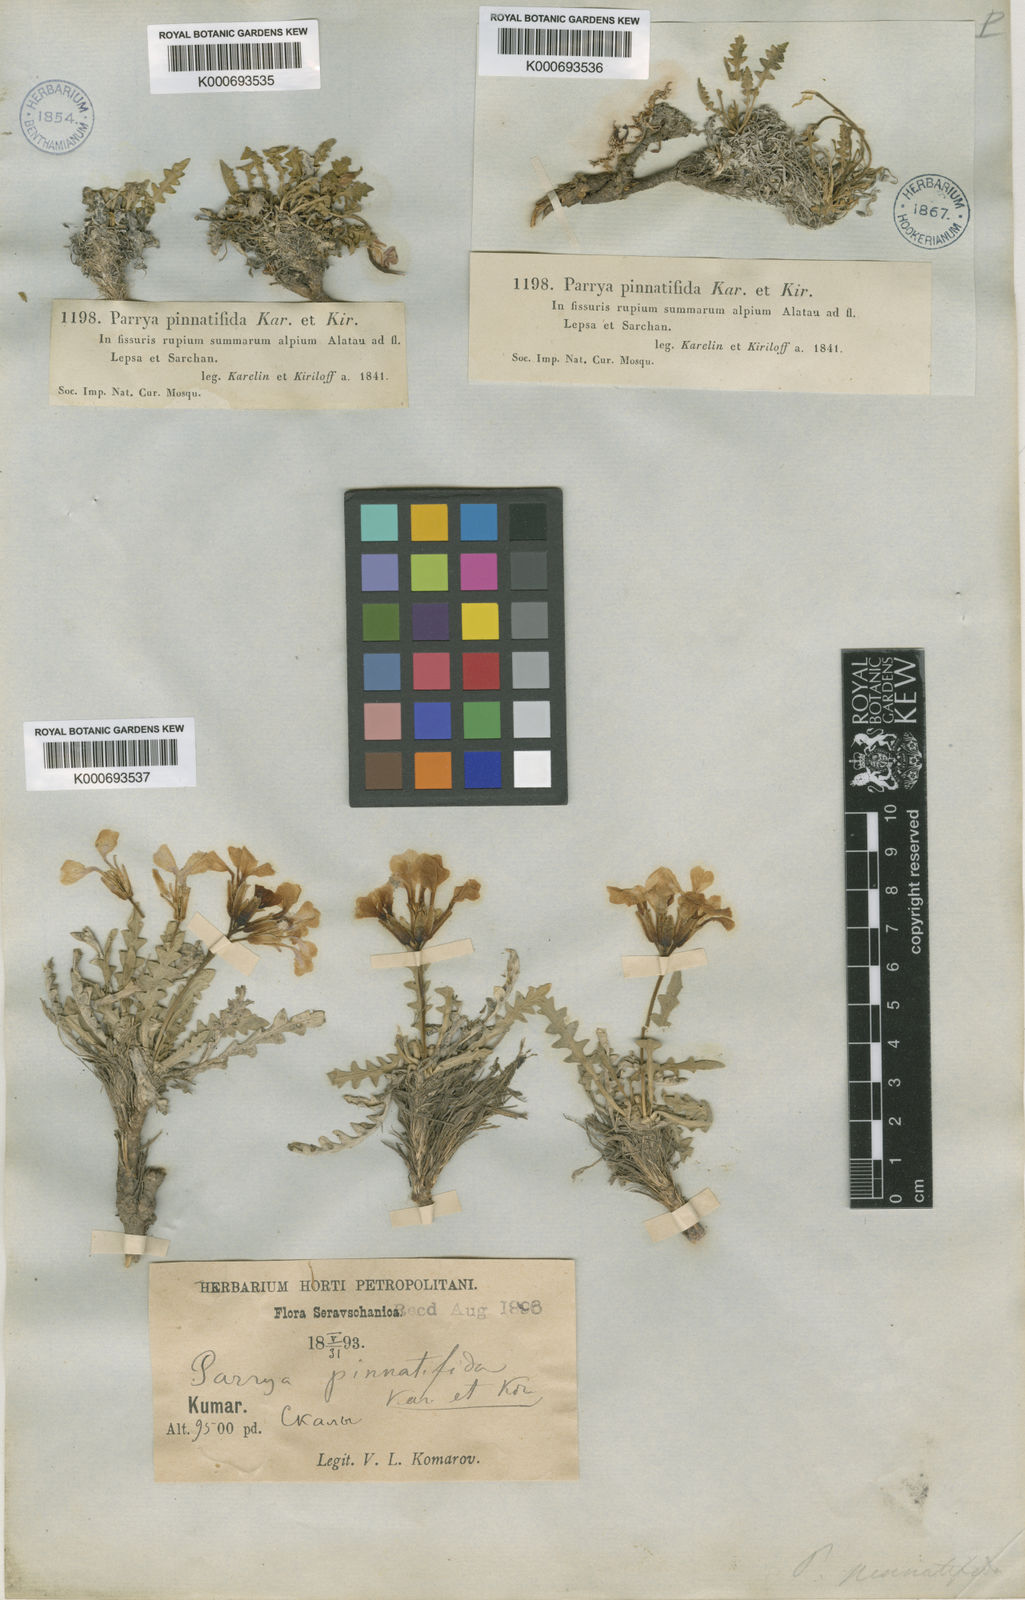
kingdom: Plantae
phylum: Tracheophyta
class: Magnoliopsida
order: Brassicales
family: Brassicaceae
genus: Parrya
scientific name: Parrya pinnatifida
